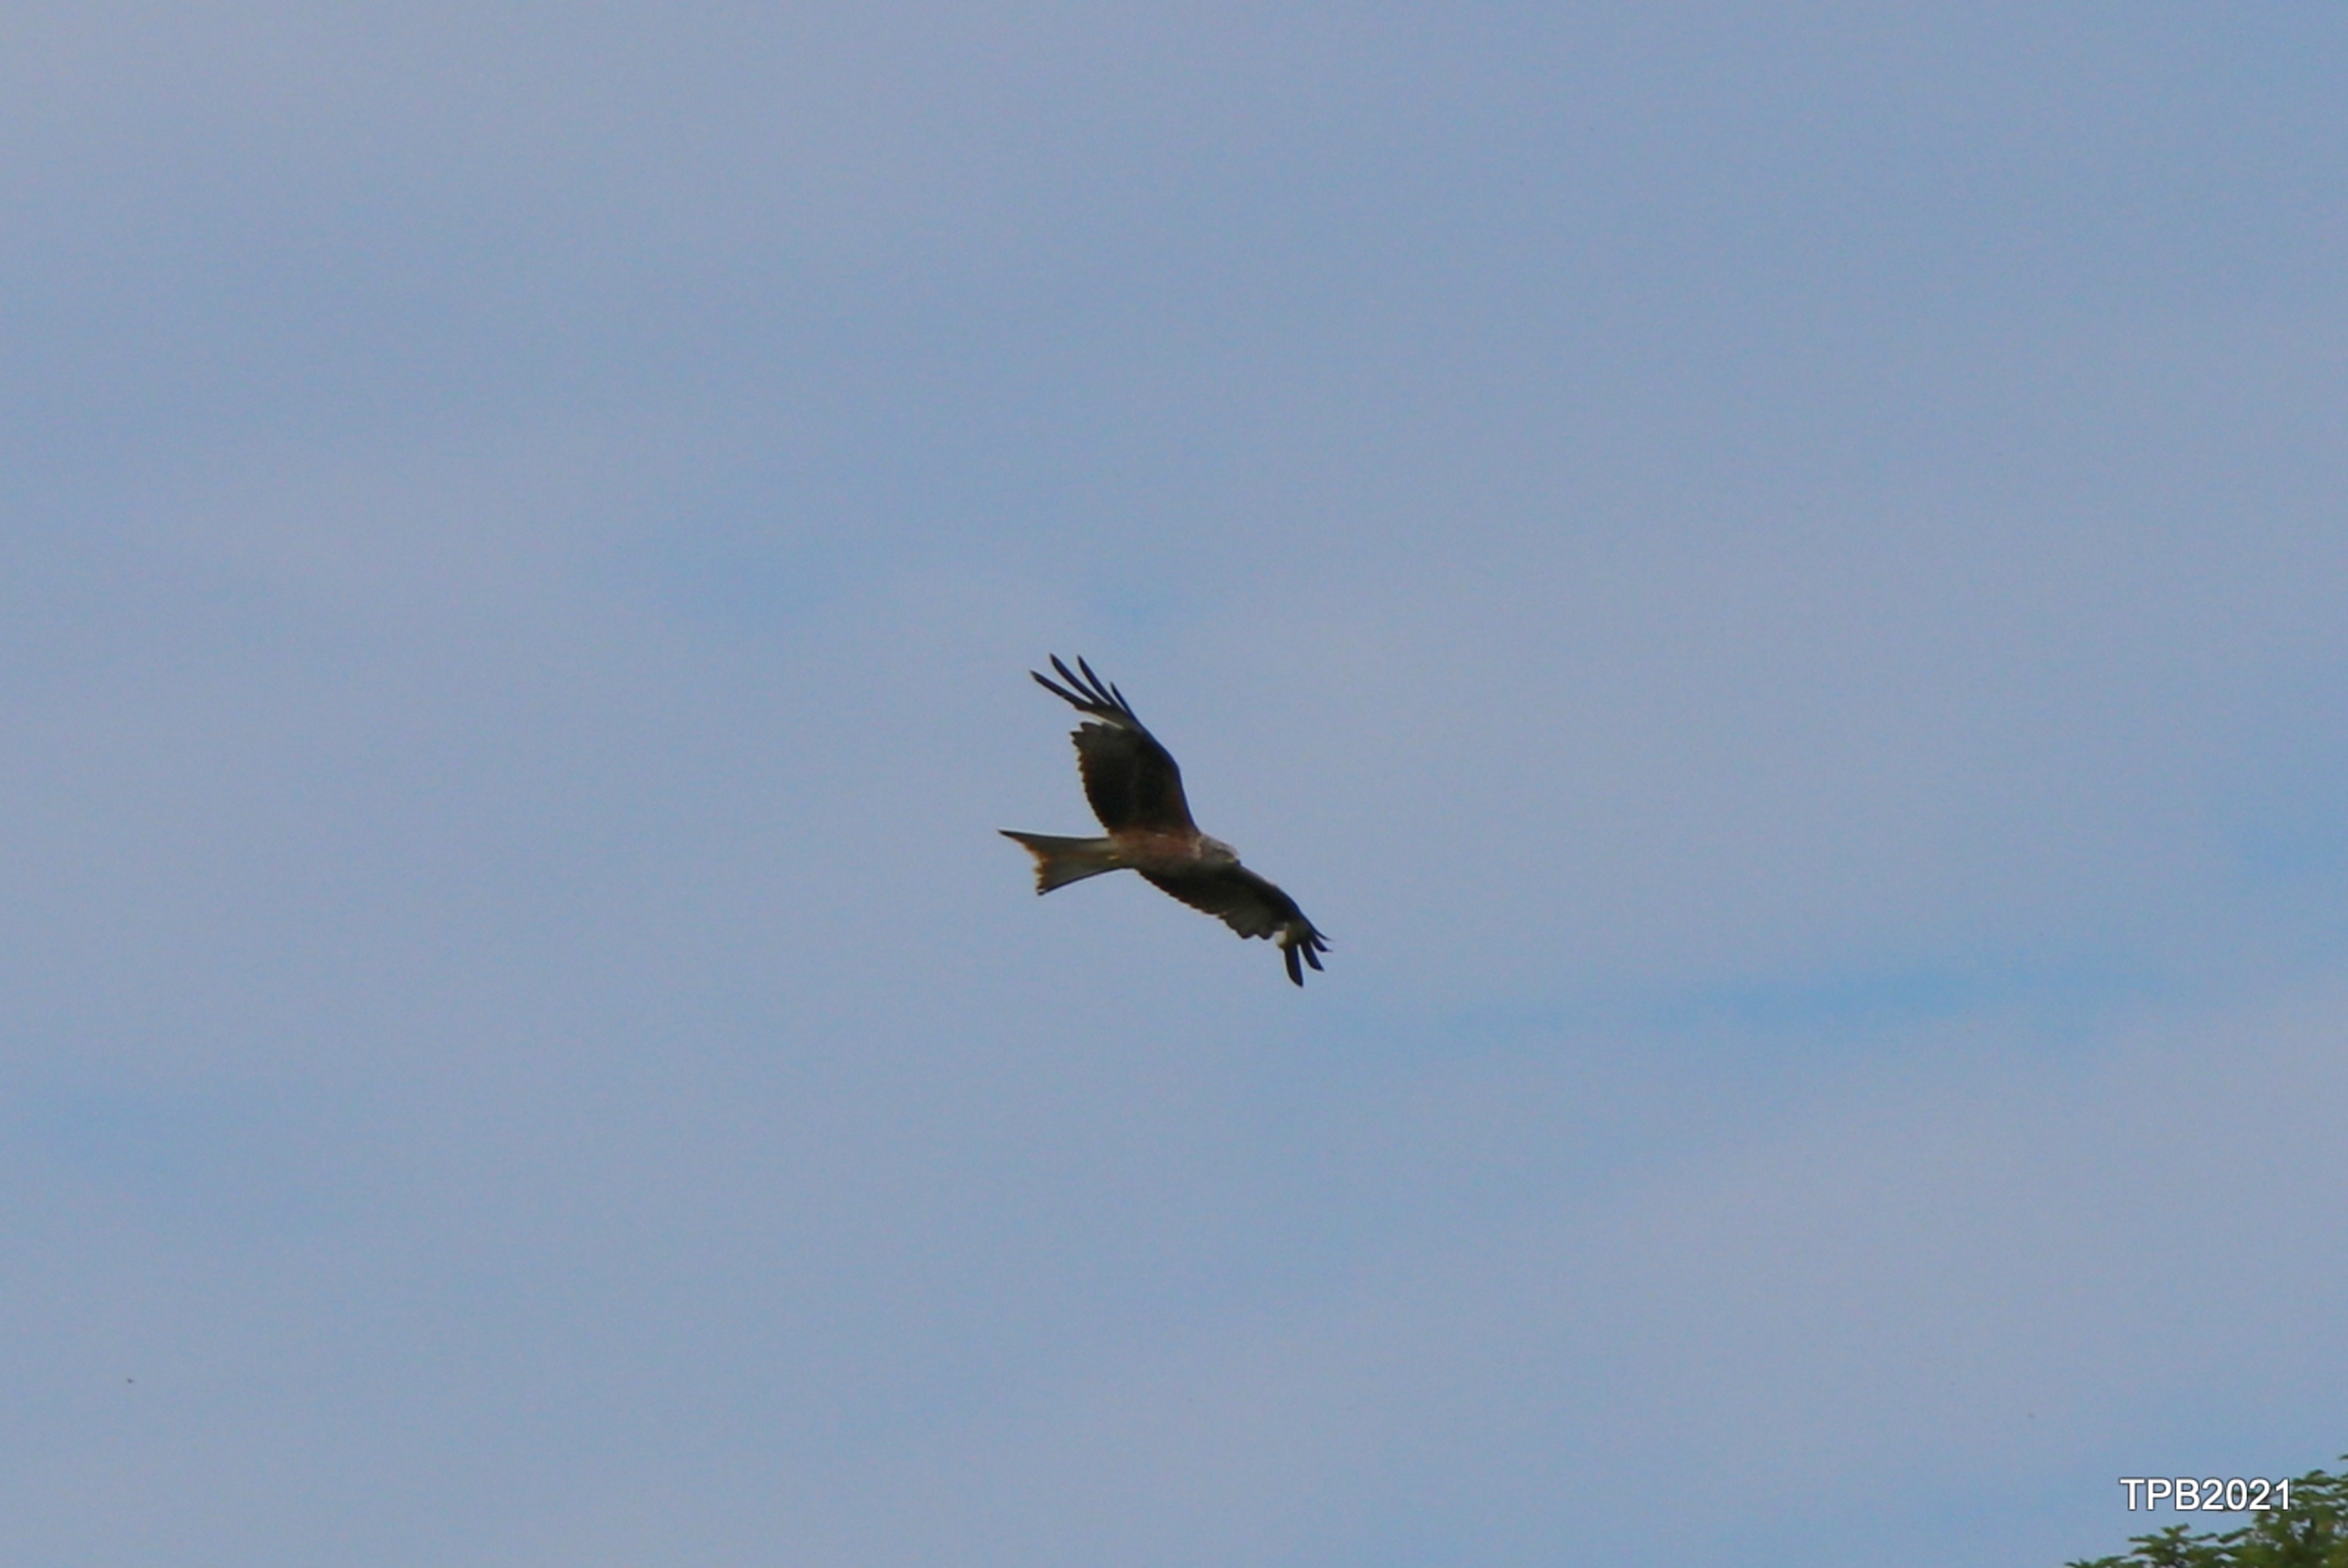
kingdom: Animalia
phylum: Chordata
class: Aves
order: Accipitriformes
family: Accipitridae
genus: Milvus
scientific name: Milvus milvus
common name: Rød glente
